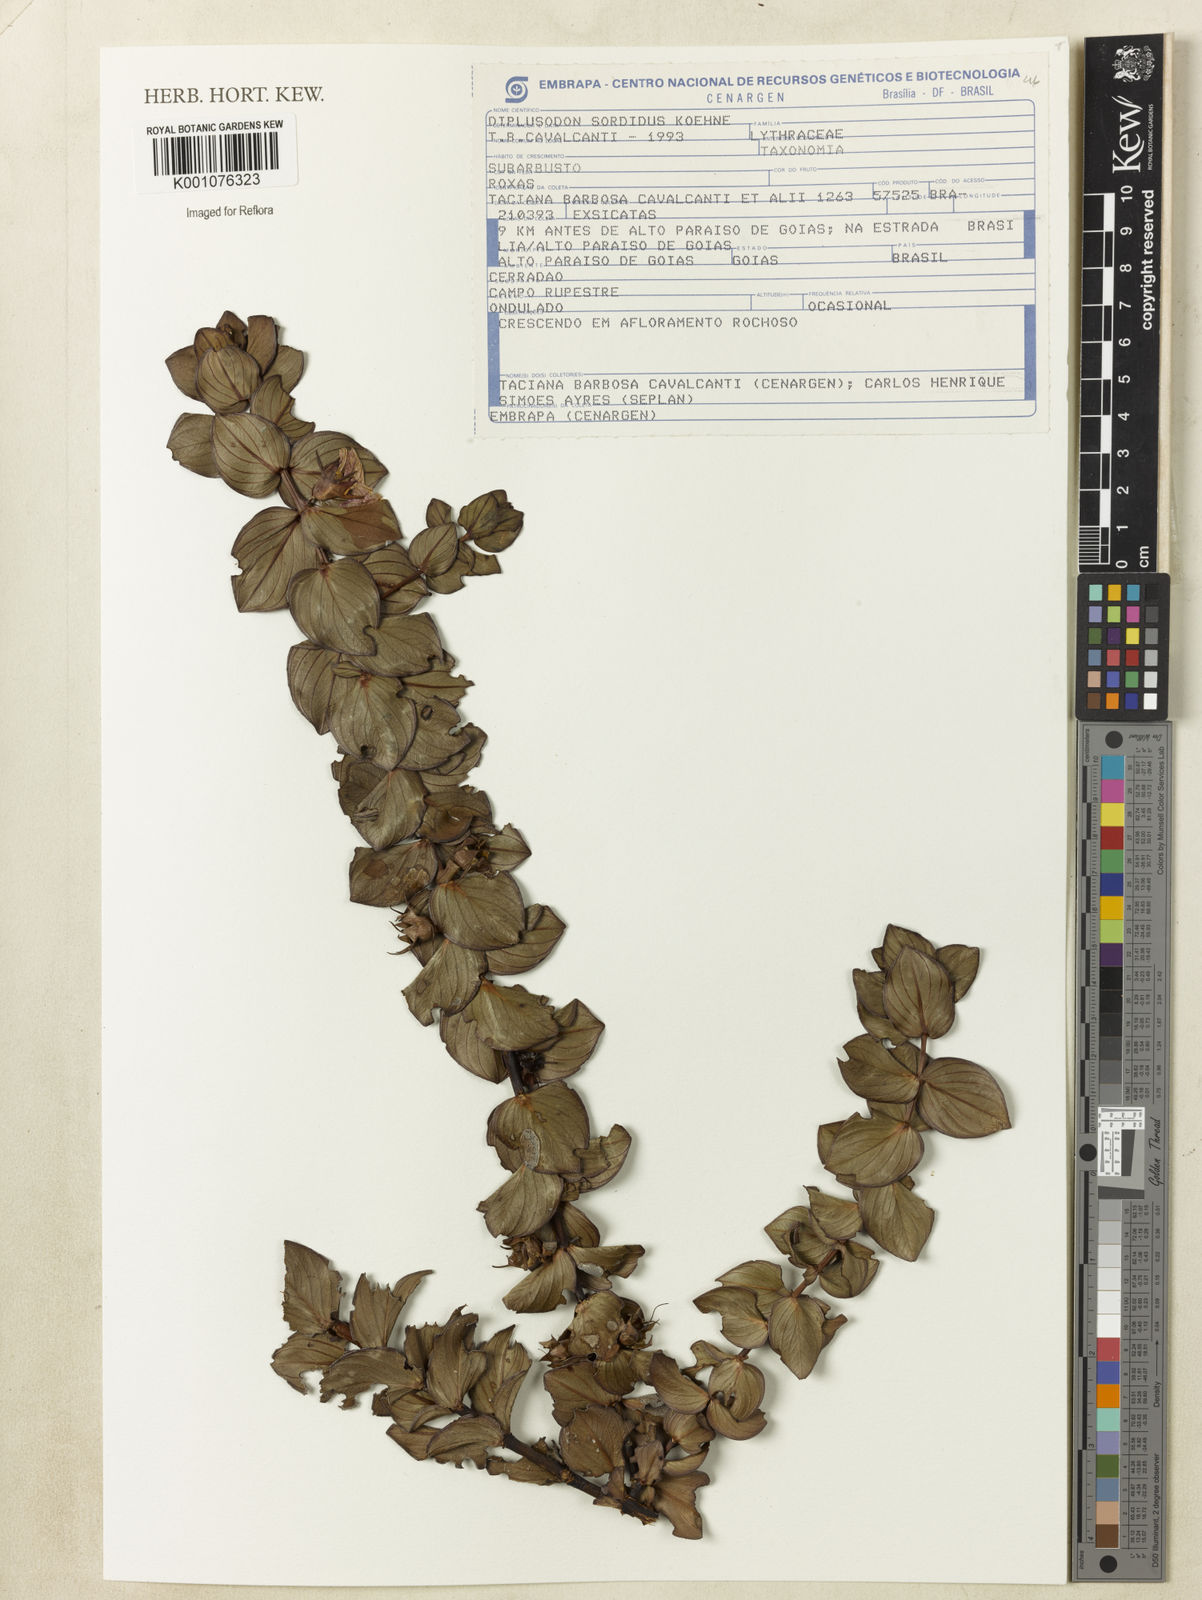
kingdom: Plantae
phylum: Tracheophyta
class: Magnoliopsida
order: Myrtales
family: Lythraceae
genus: Diplusodon
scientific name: Diplusodon sordidus
